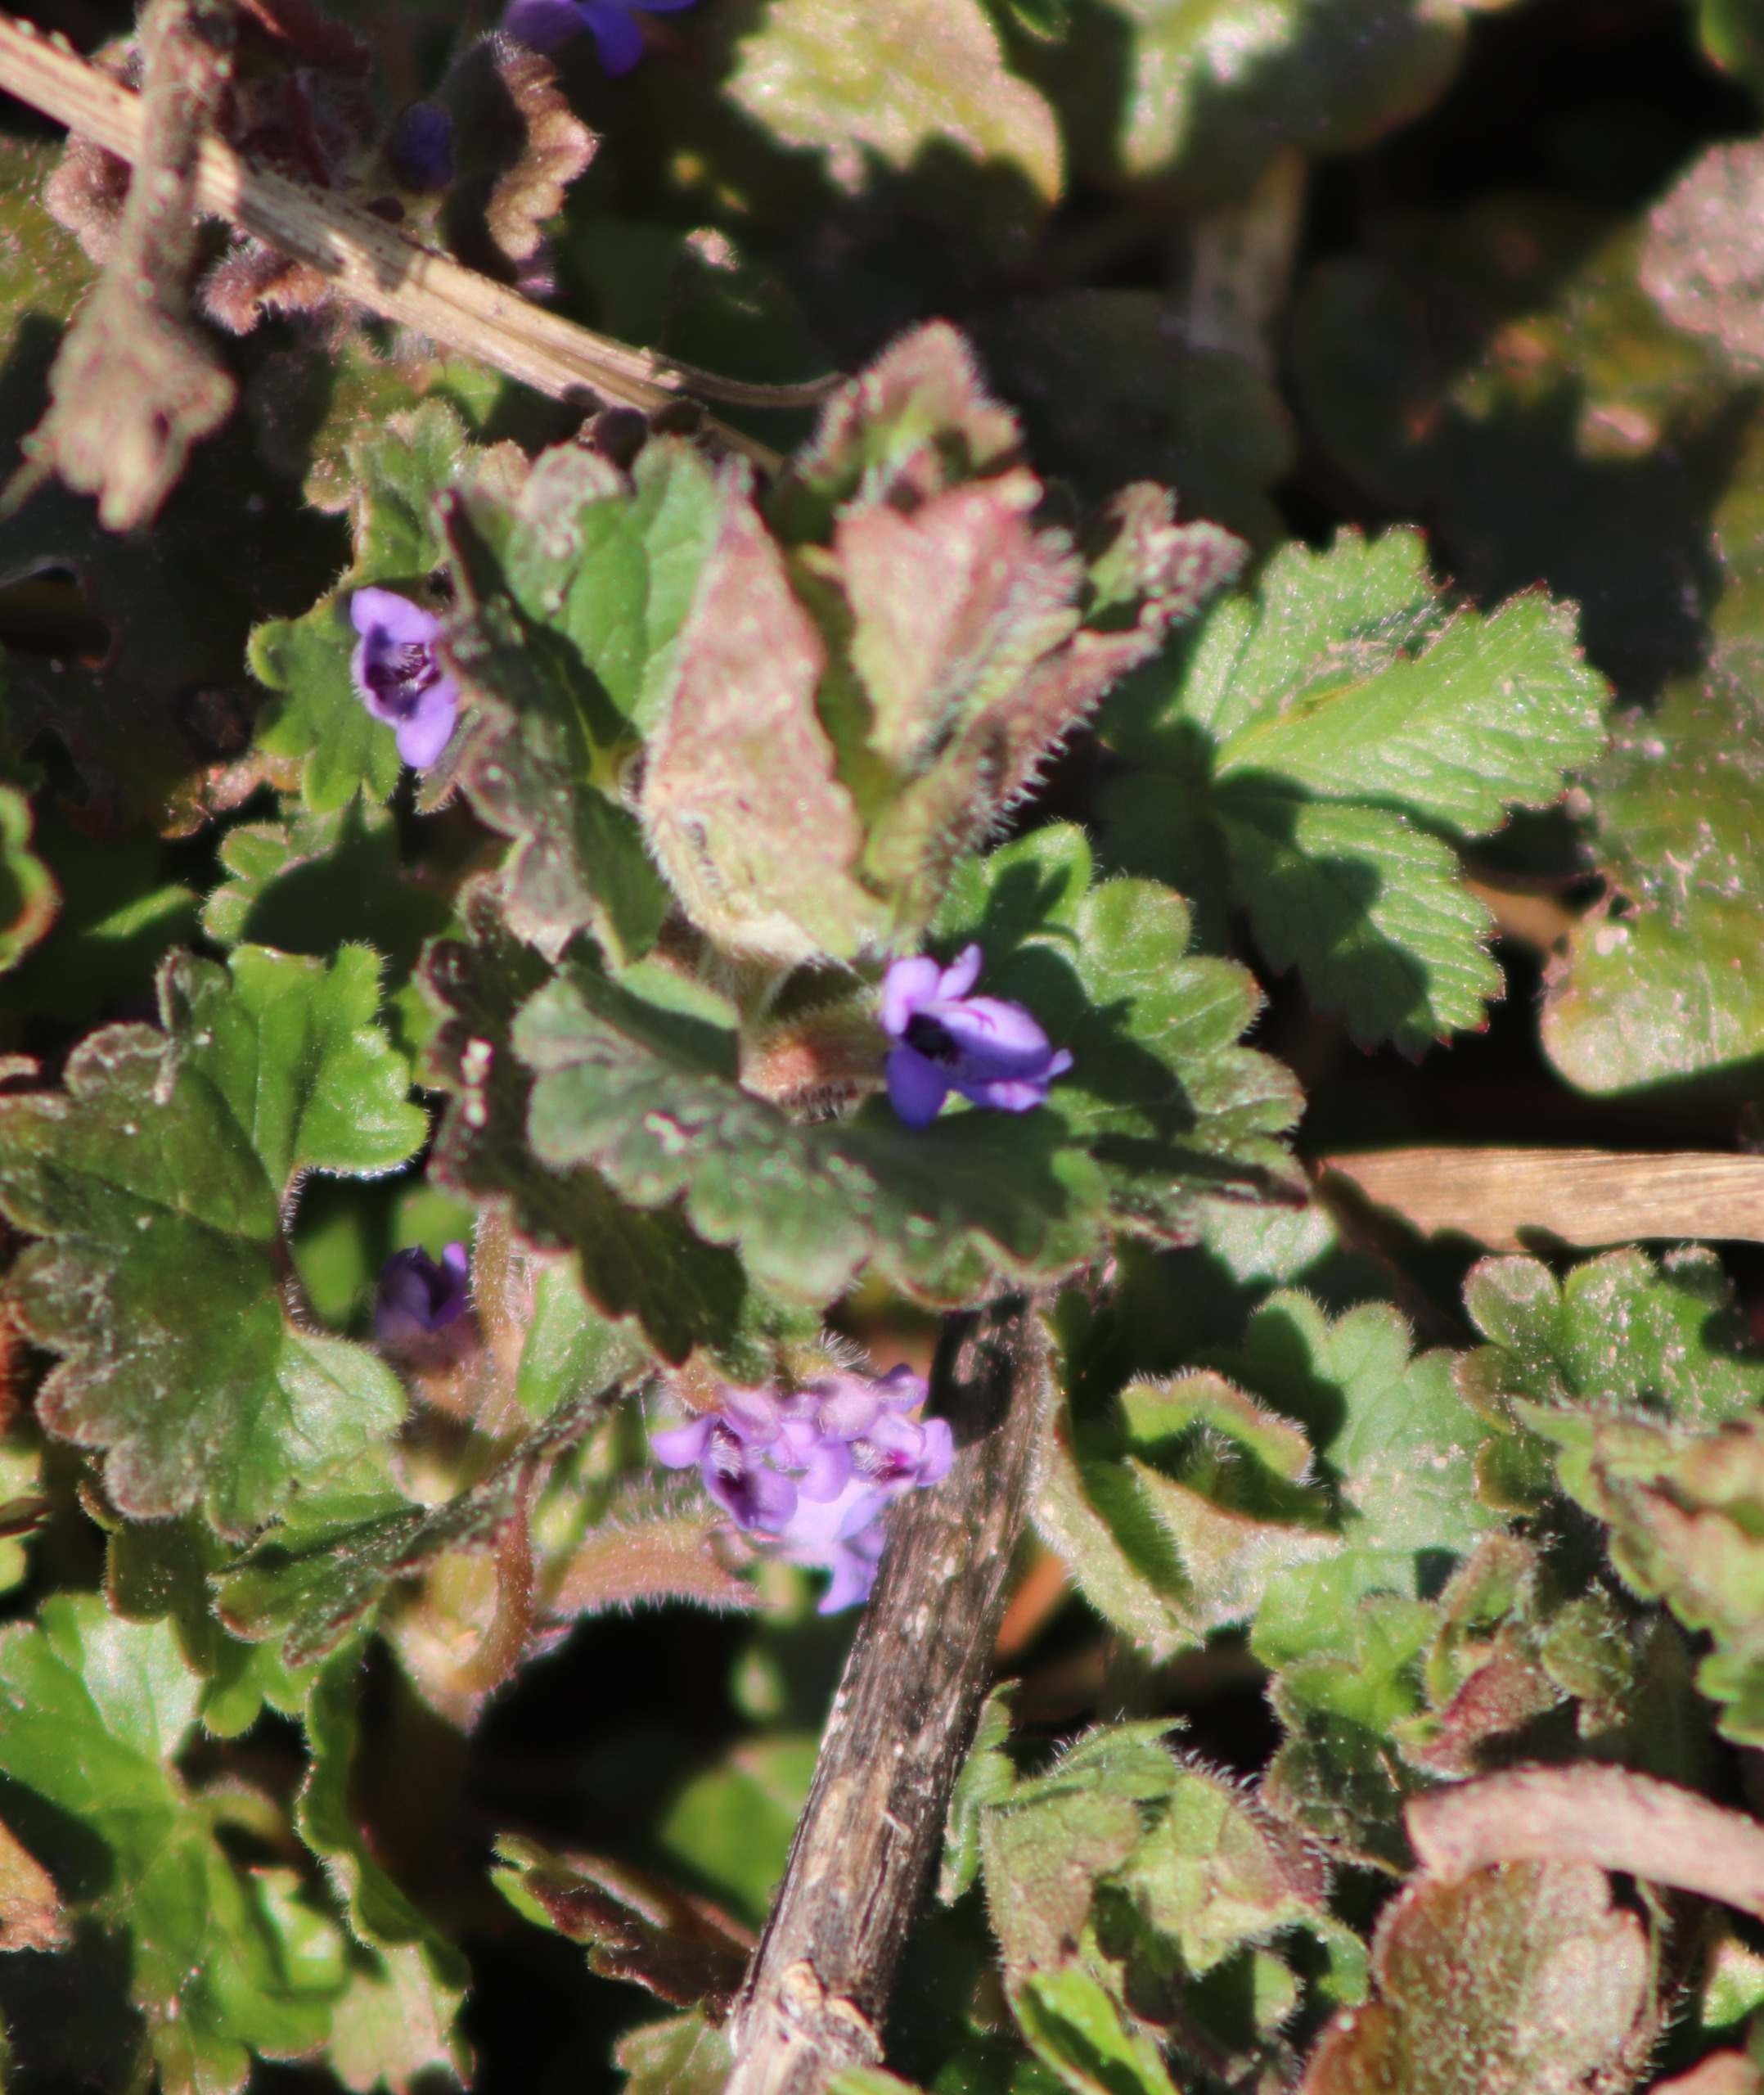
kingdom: Plantae
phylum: Tracheophyta
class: Magnoliopsida
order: Lamiales
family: Lamiaceae
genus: Glechoma
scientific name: Glechoma hederacea
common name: Korsknap
